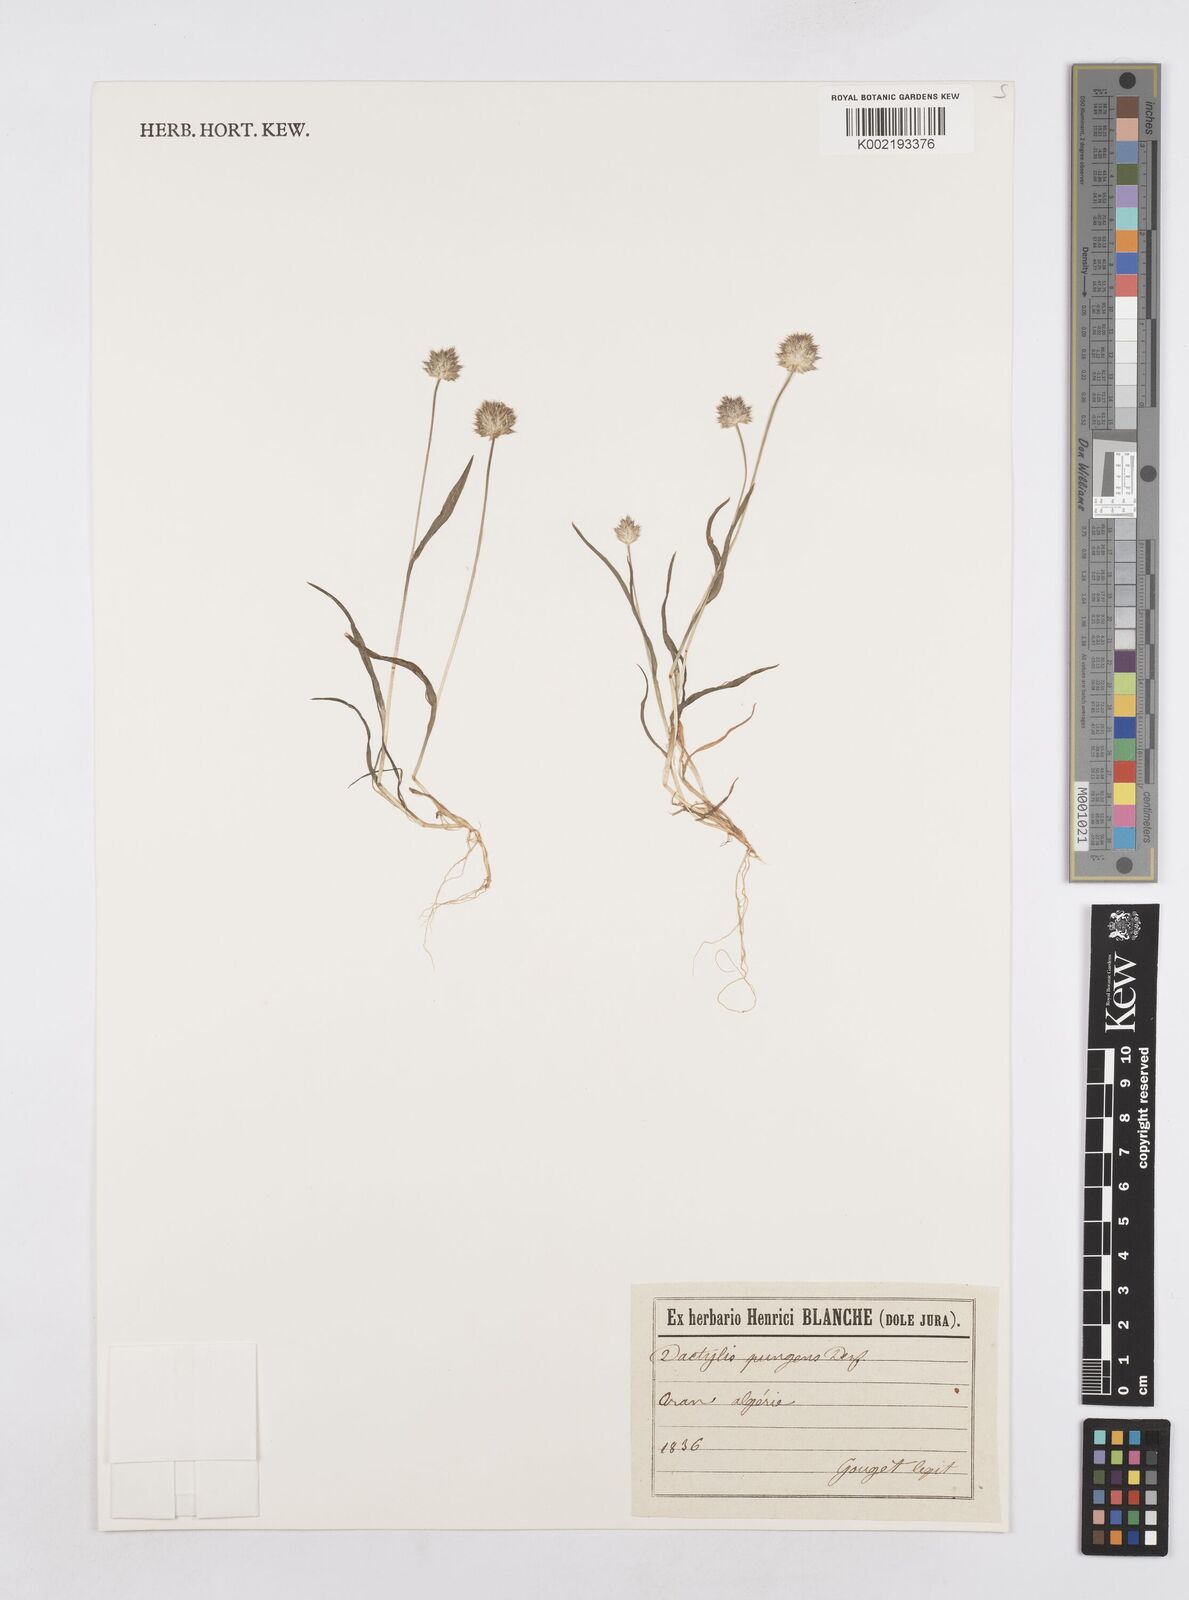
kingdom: Plantae
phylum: Tracheophyta
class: Liliopsida
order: Poales
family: Poaceae
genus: Echinaria
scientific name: Echinaria capitata
